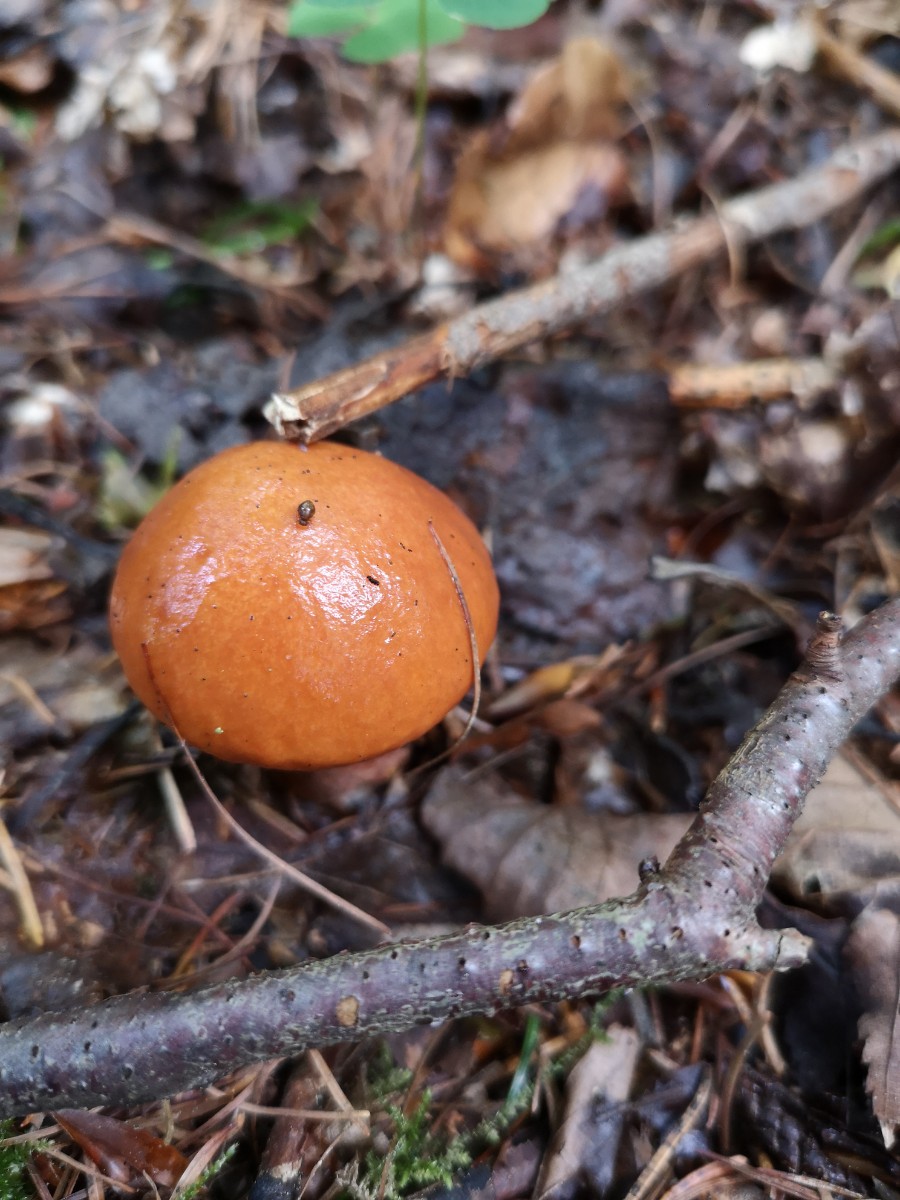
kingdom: Fungi
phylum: Basidiomycota
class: Agaricomycetes
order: Boletales
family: Suillaceae
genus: Suillus
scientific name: Suillus grevillei
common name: lærke-slimrørhat
